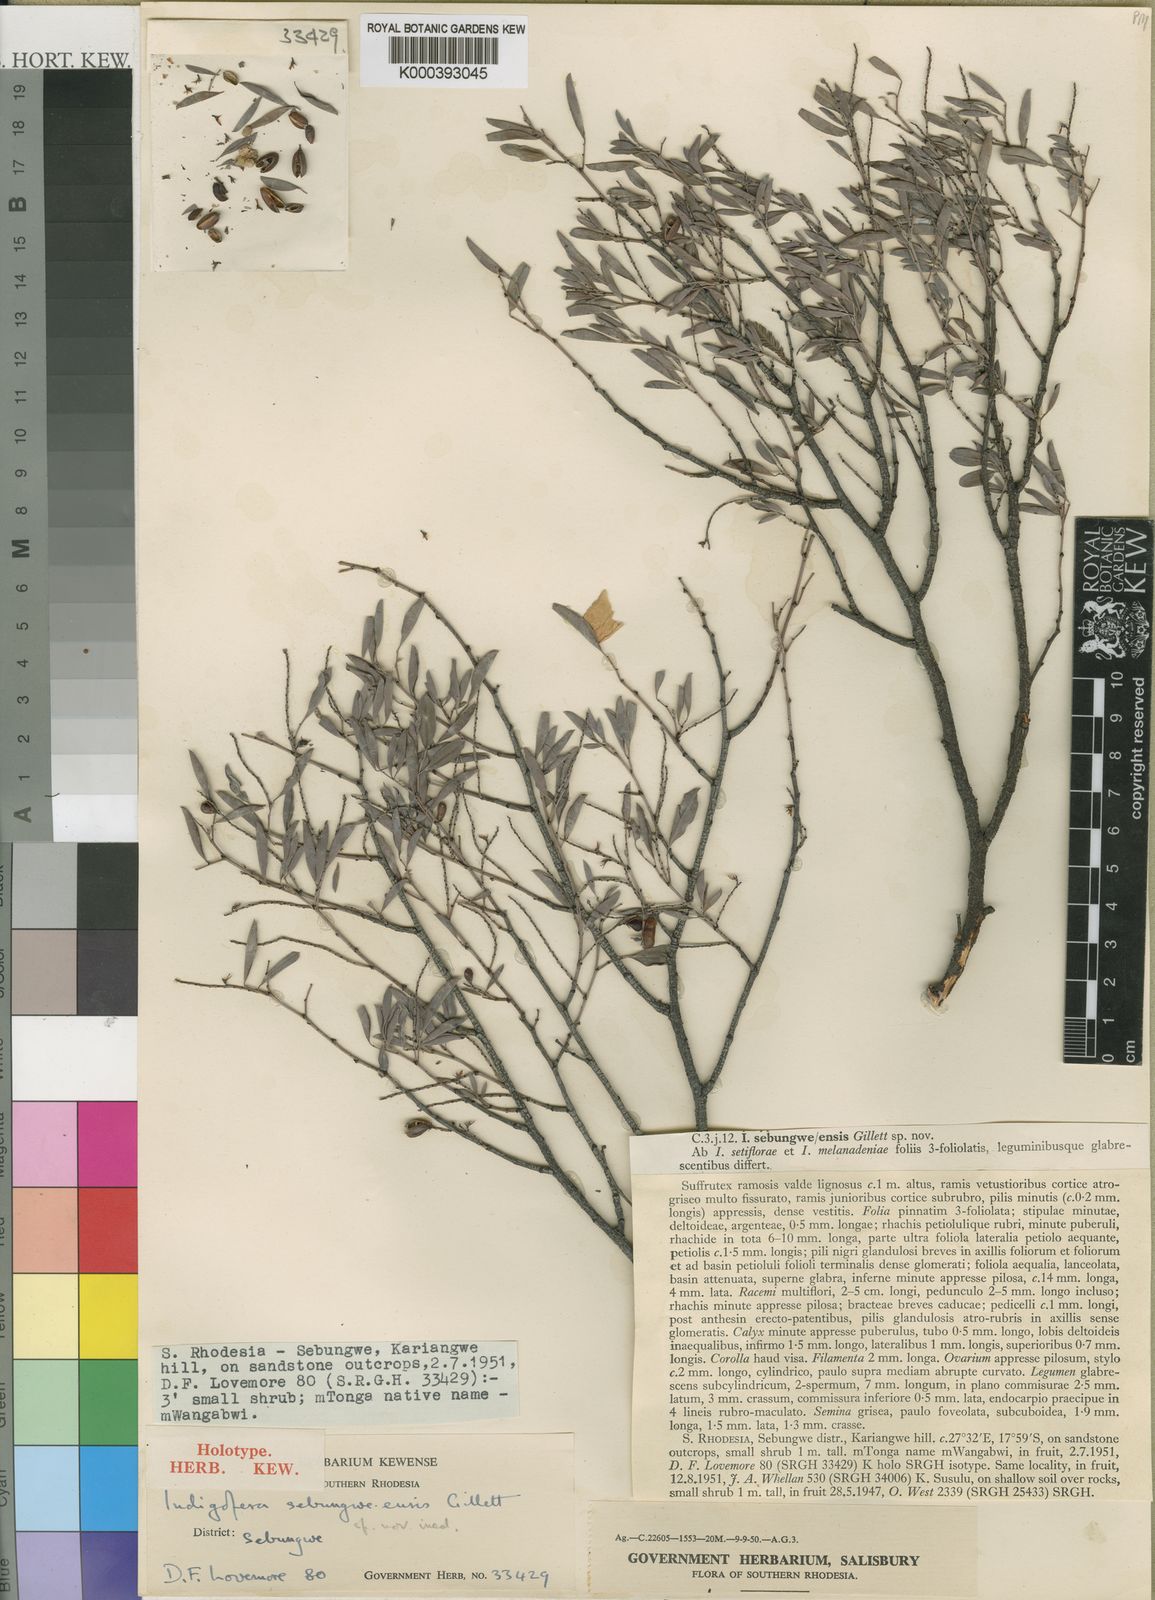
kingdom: Plantae
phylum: Tracheophyta
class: Magnoliopsida
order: Fabales
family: Fabaceae
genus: Indigofera
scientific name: Indigofera sebungweensis
